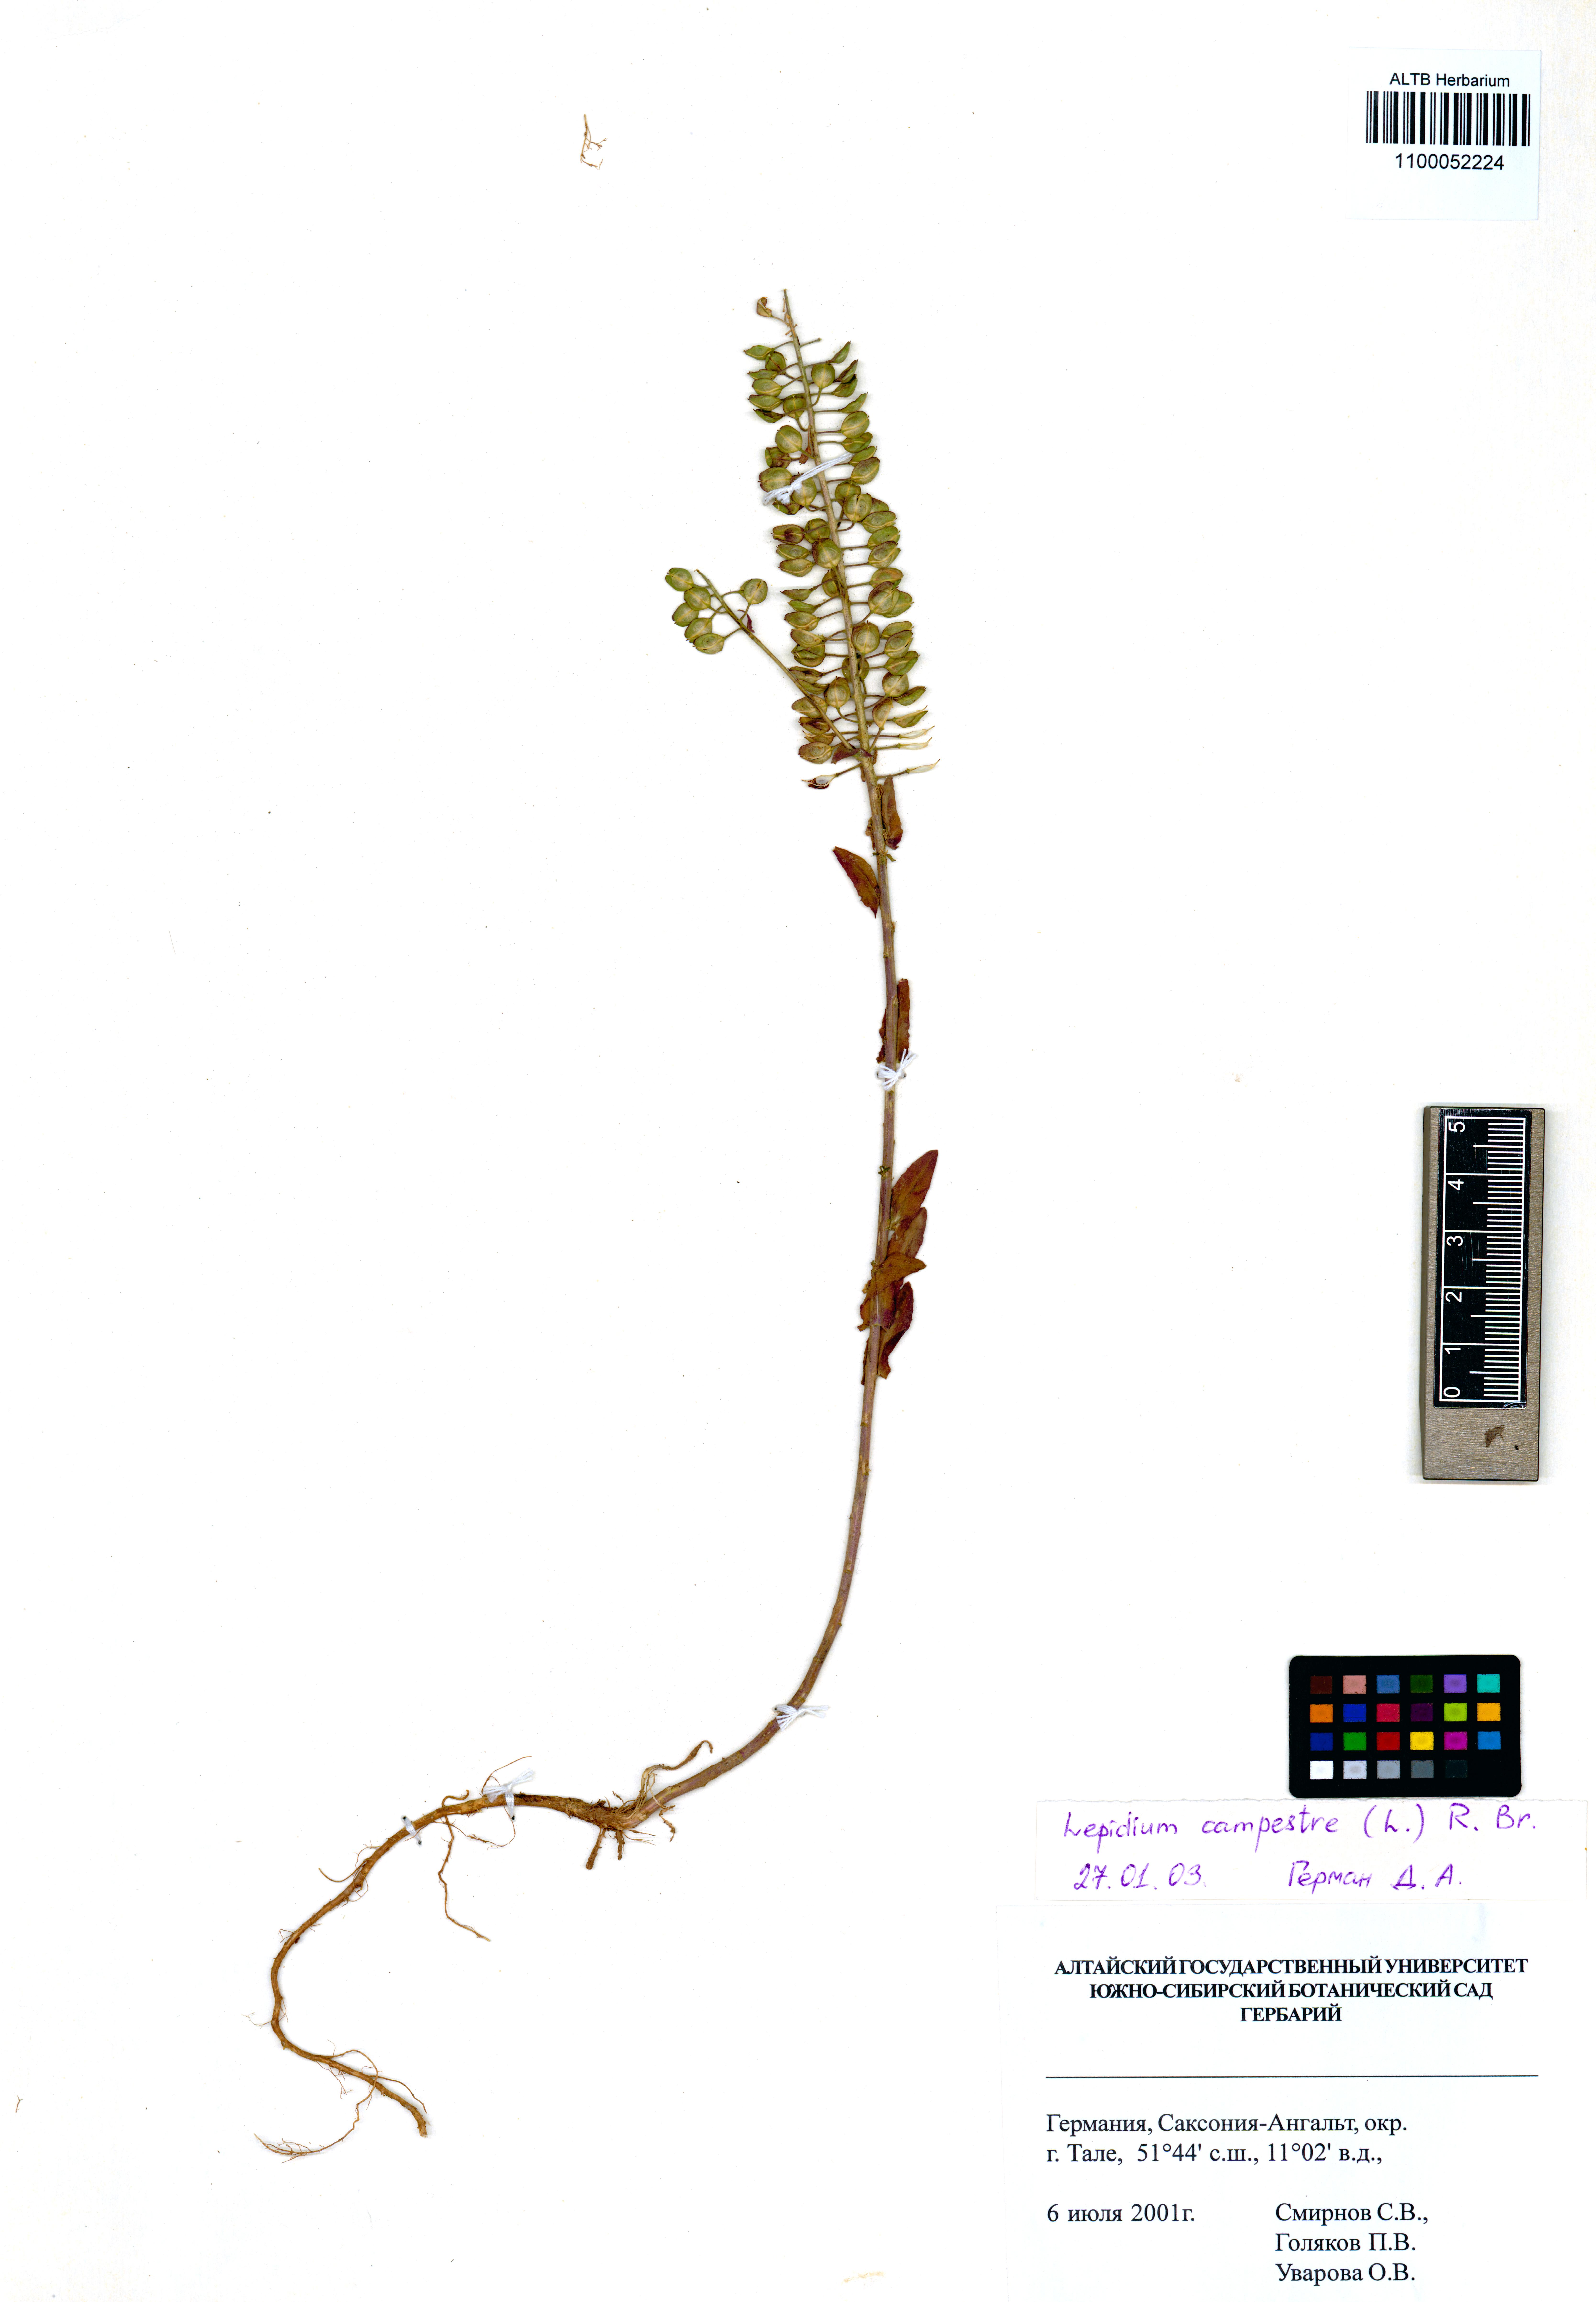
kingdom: Plantae
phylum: Tracheophyta
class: Magnoliopsida
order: Brassicales
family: Brassicaceae
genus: Lepidium
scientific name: Lepidium cordatum
